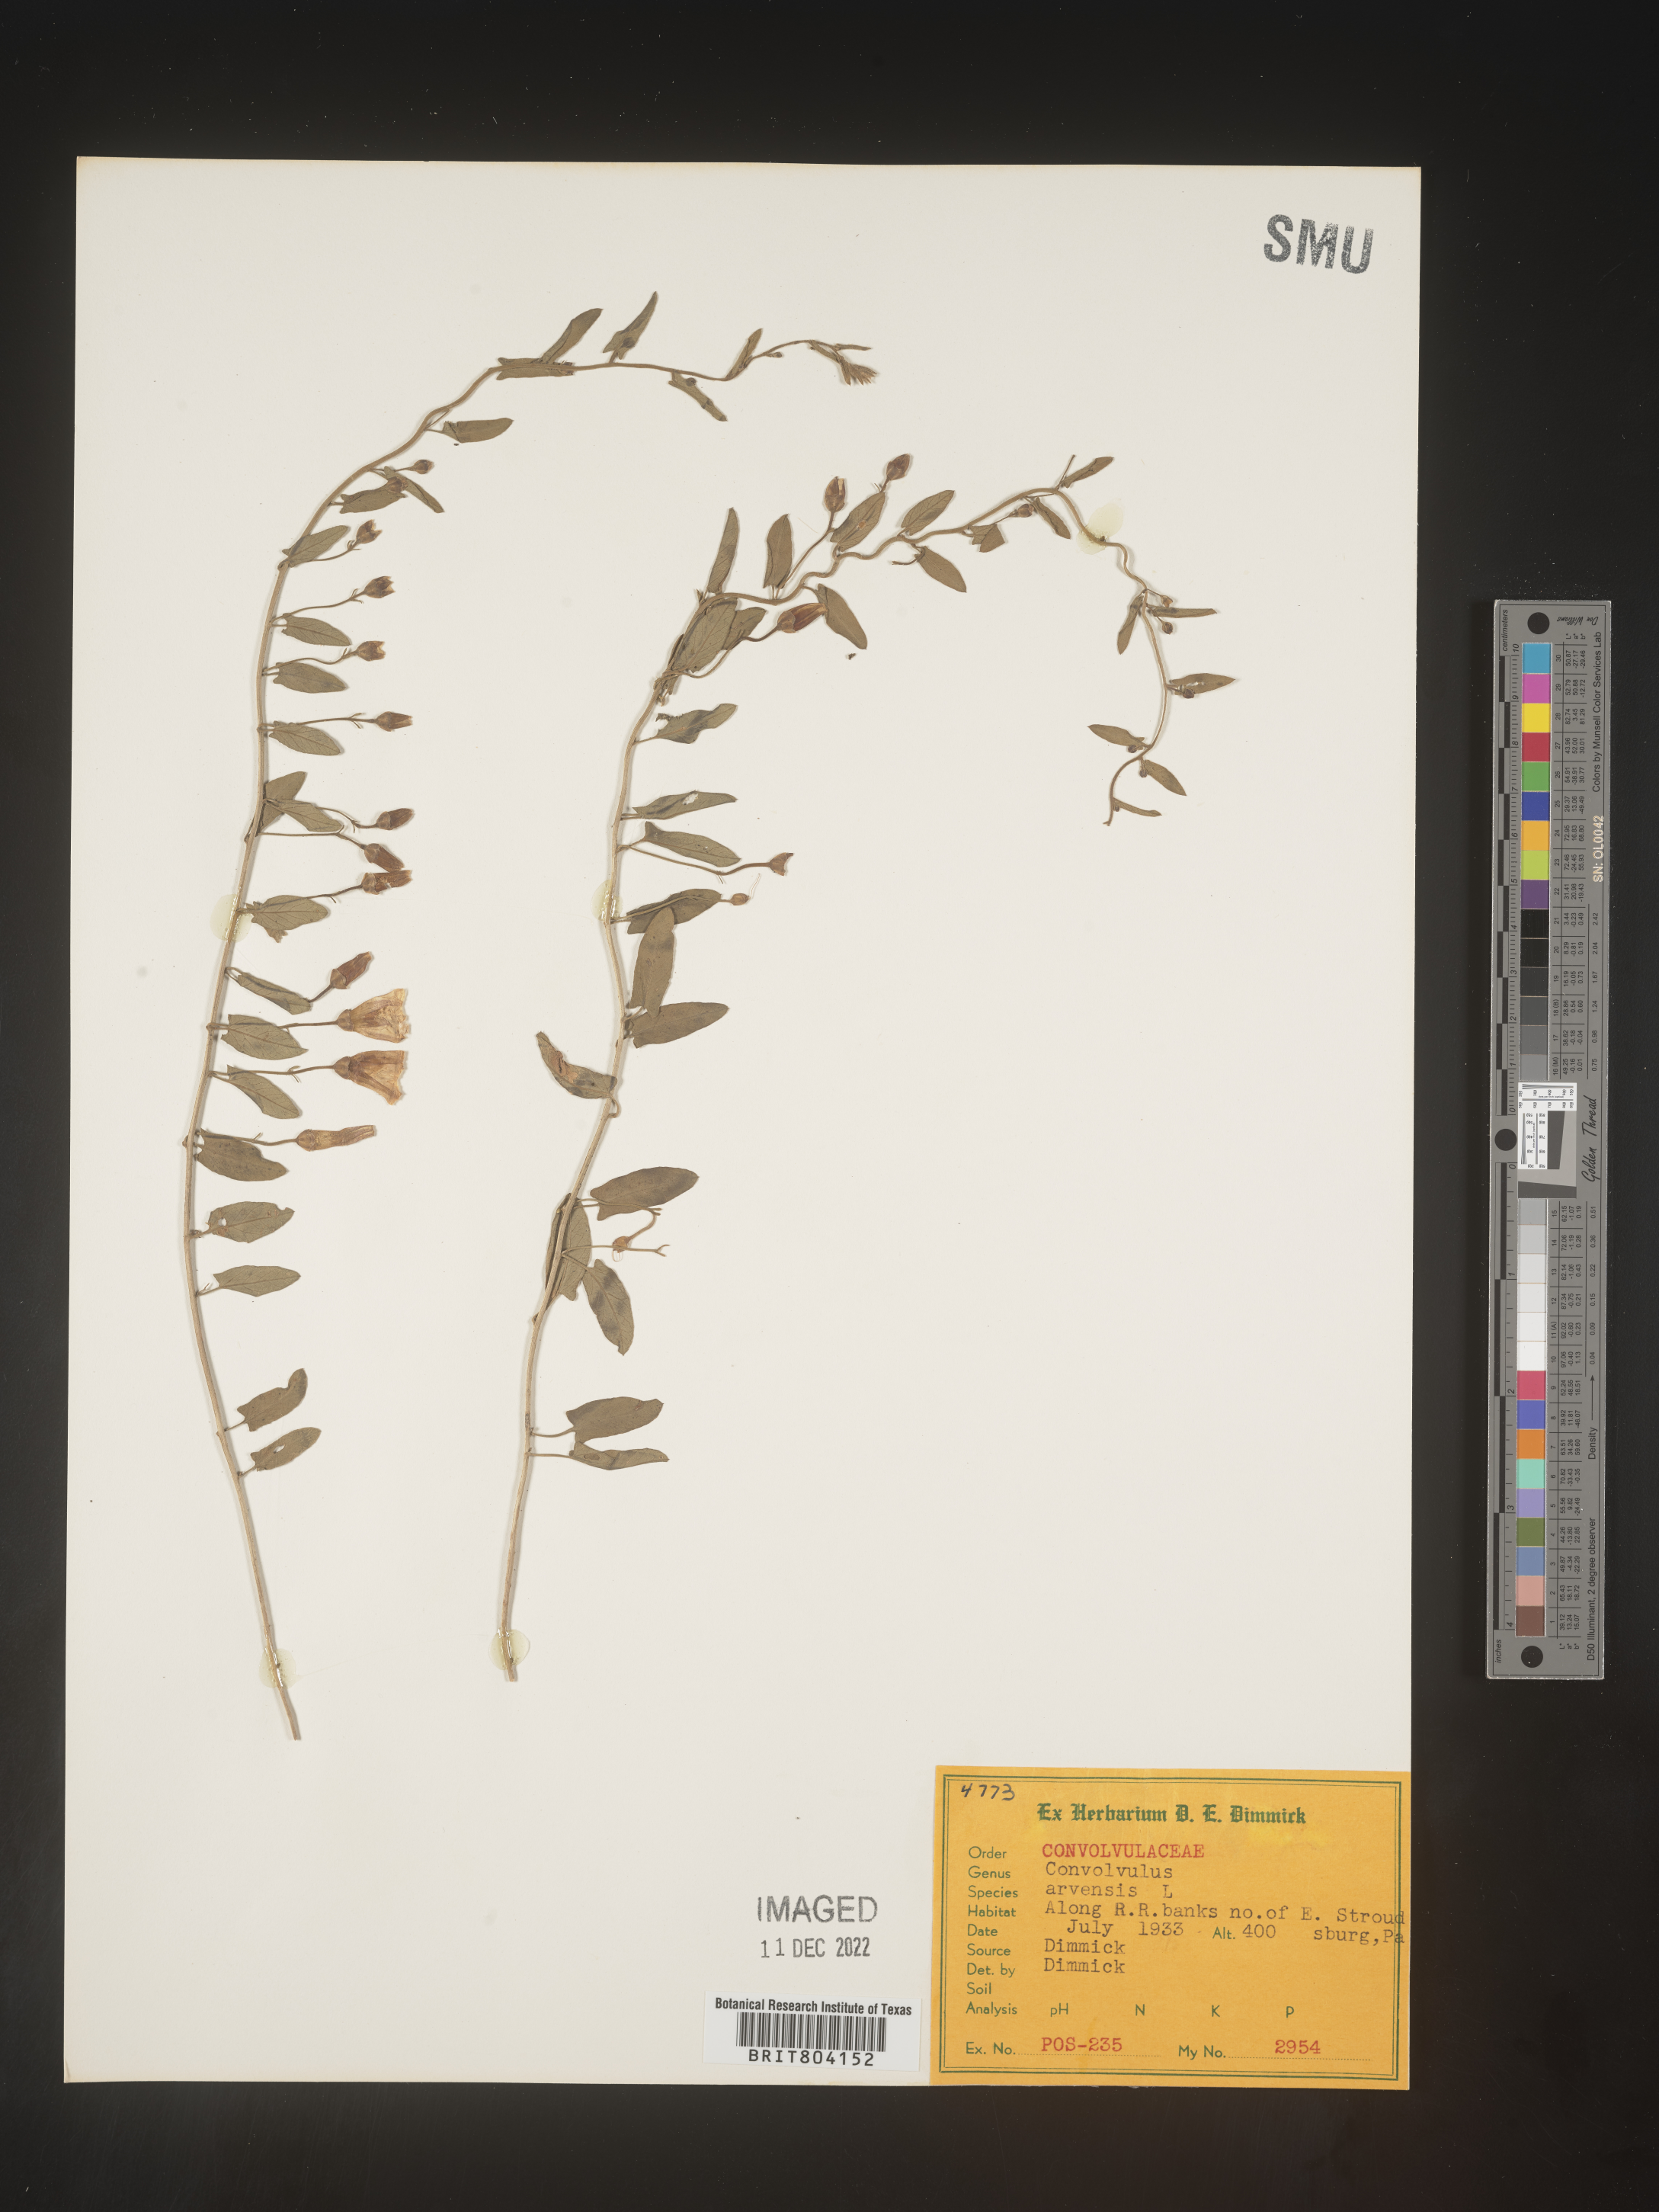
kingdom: Plantae
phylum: Tracheophyta
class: Magnoliopsida
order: Solanales
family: Convolvulaceae
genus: Convolvulus
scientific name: Convolvulus arvensis
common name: Field bindweed
